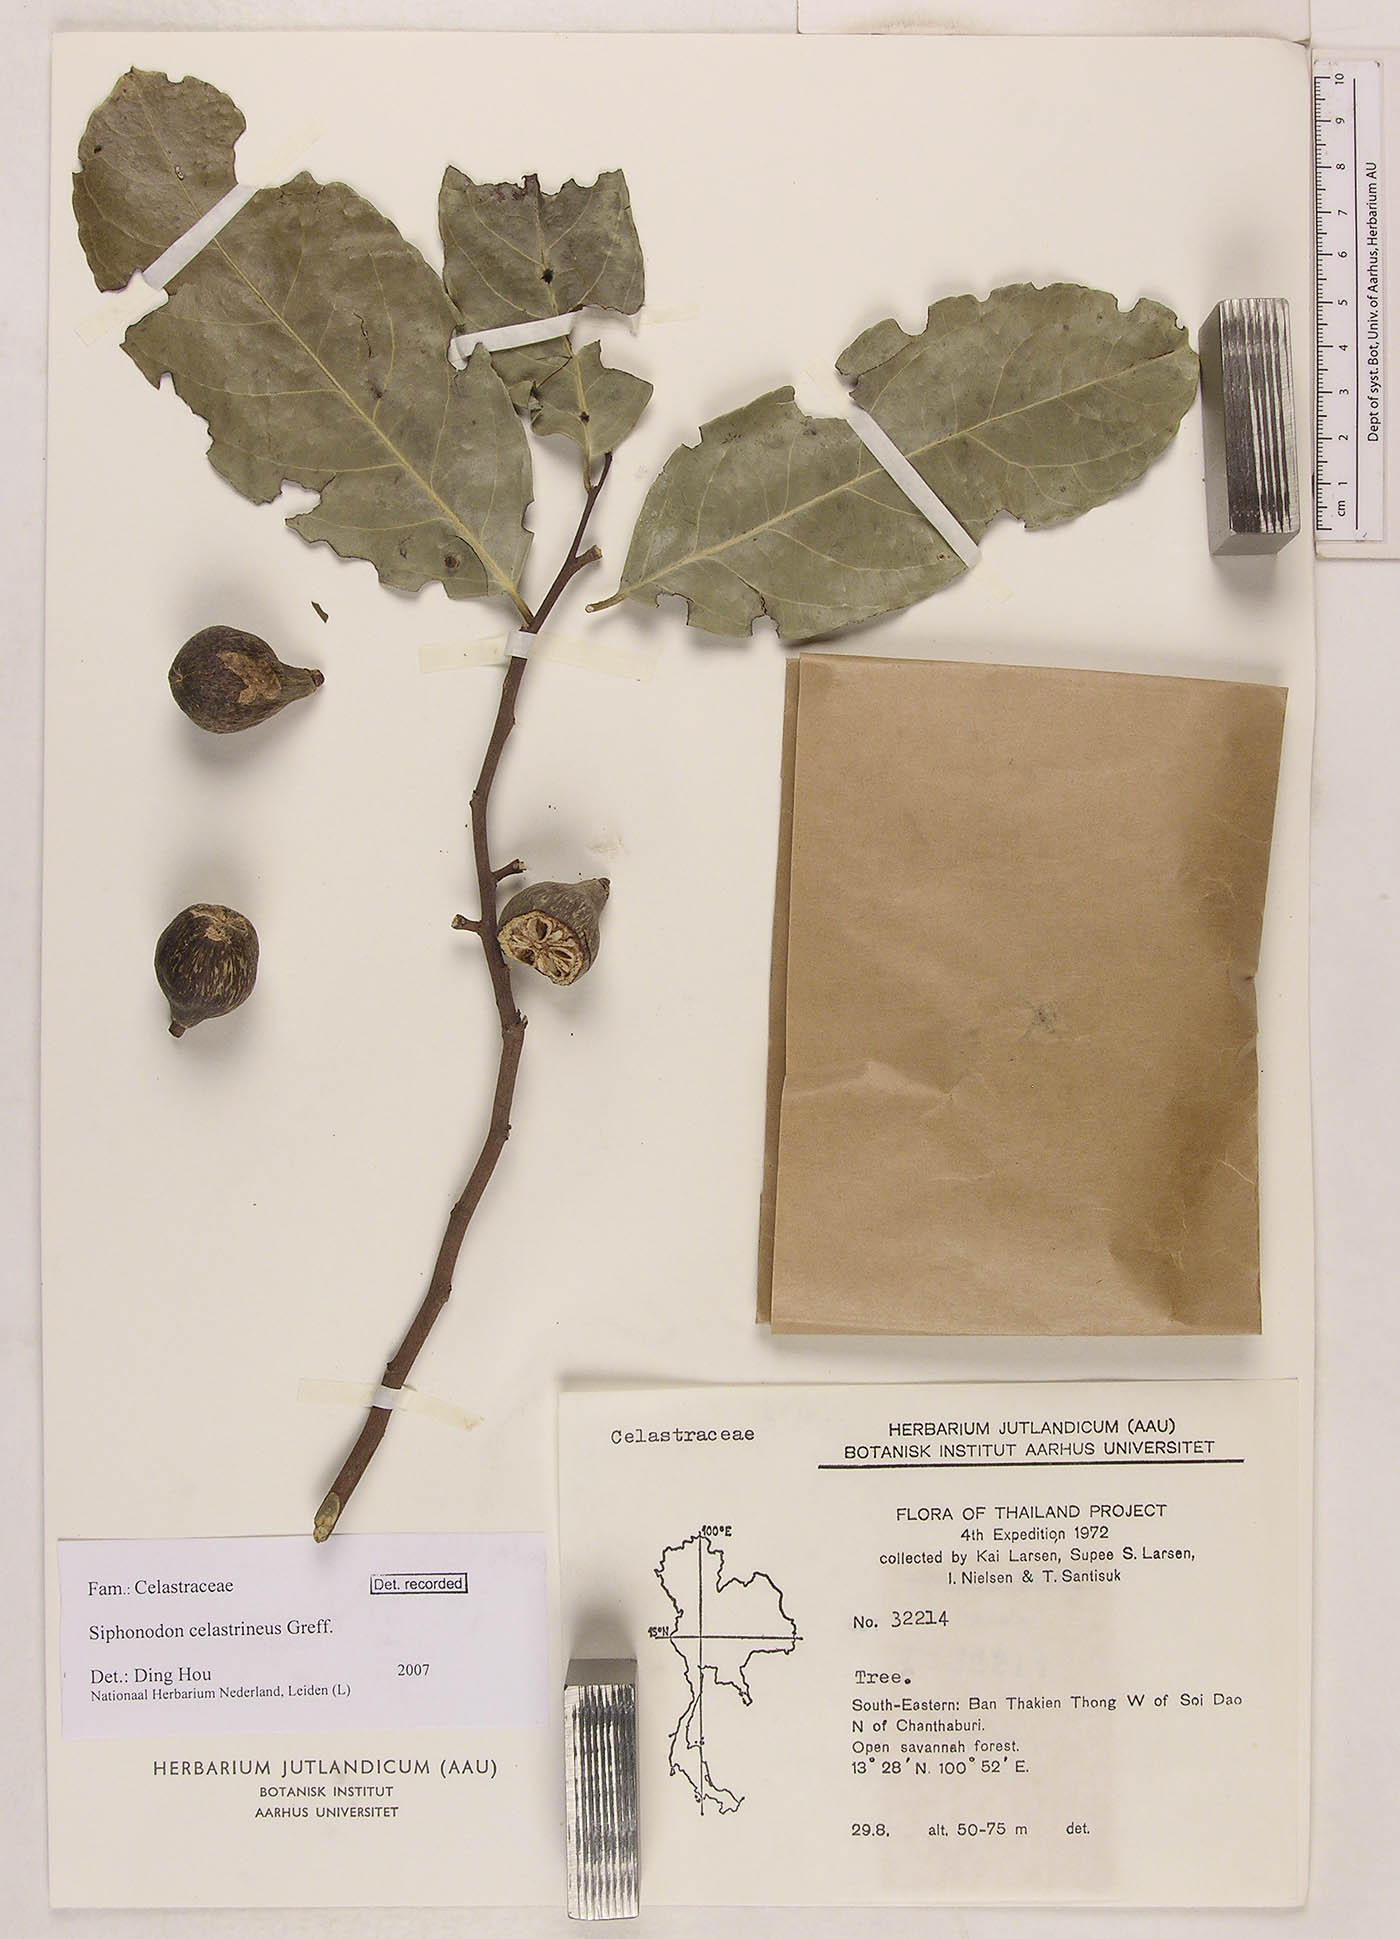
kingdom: Plantae
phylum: Tracheophyta
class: Magnoliopsida
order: Celastrales
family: Celastraceae
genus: Siphonodon
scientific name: Siphonodon celastrineus
